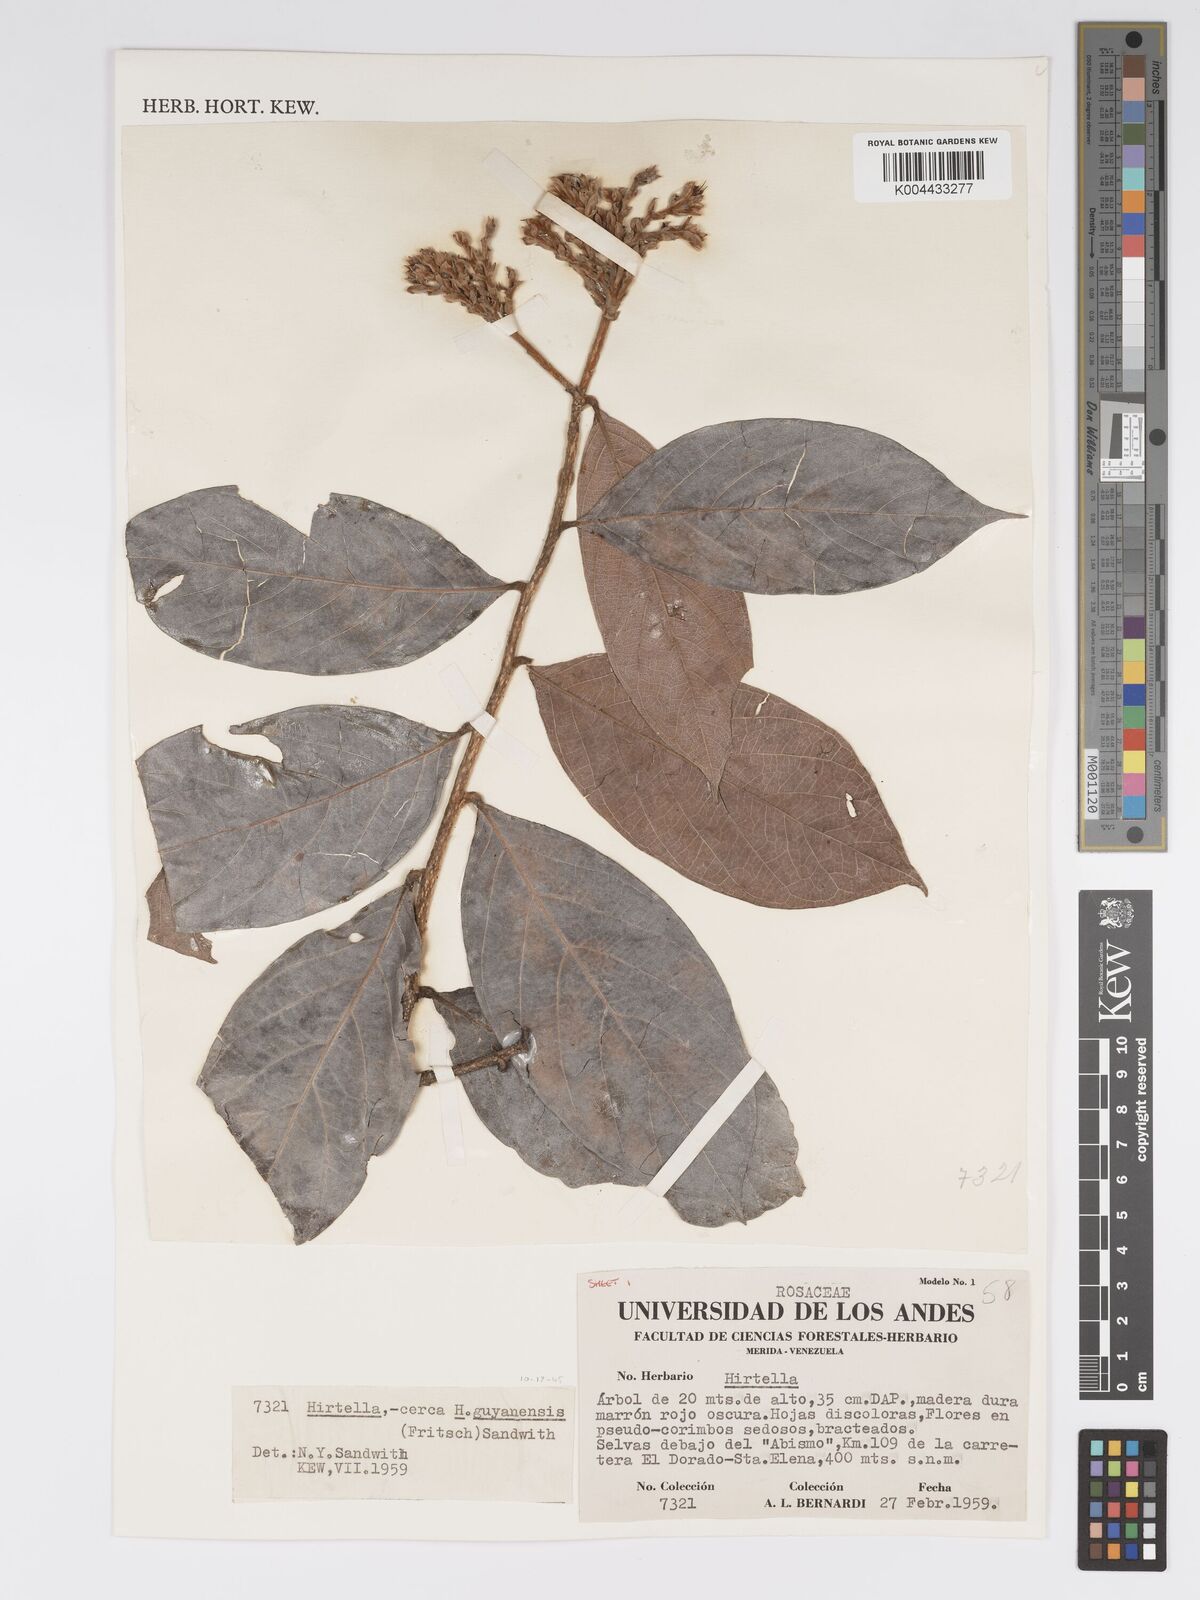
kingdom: Plantae
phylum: Tracheophyta
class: Magnoliopsida
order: Malpighiales
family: Chrysobalanaceae
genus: Hirtella
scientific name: Hirtella guyanensis
